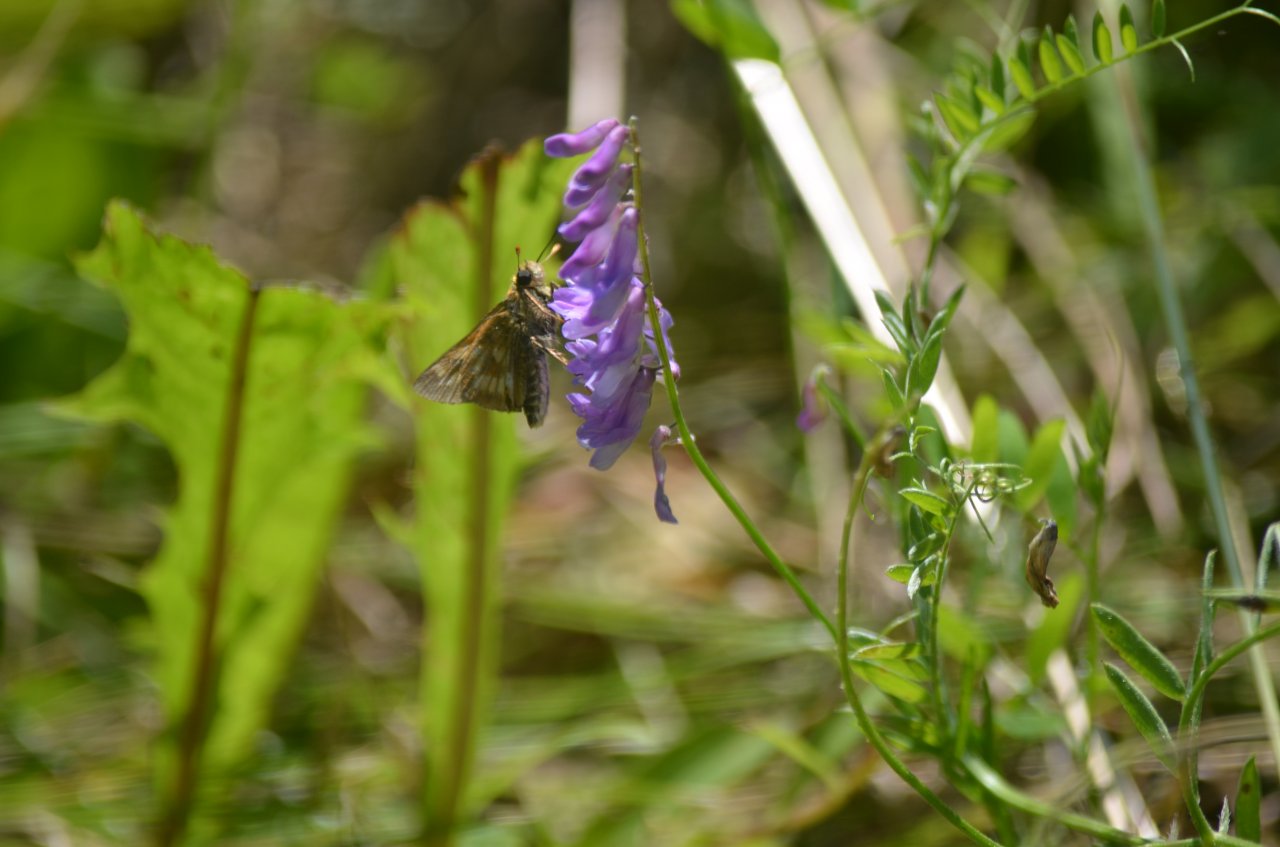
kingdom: Animalia
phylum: Arthropoda
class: Insecta
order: Lepidoptera
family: Hesperiidae
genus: Polites
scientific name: Polites
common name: Long Dash Skipper
